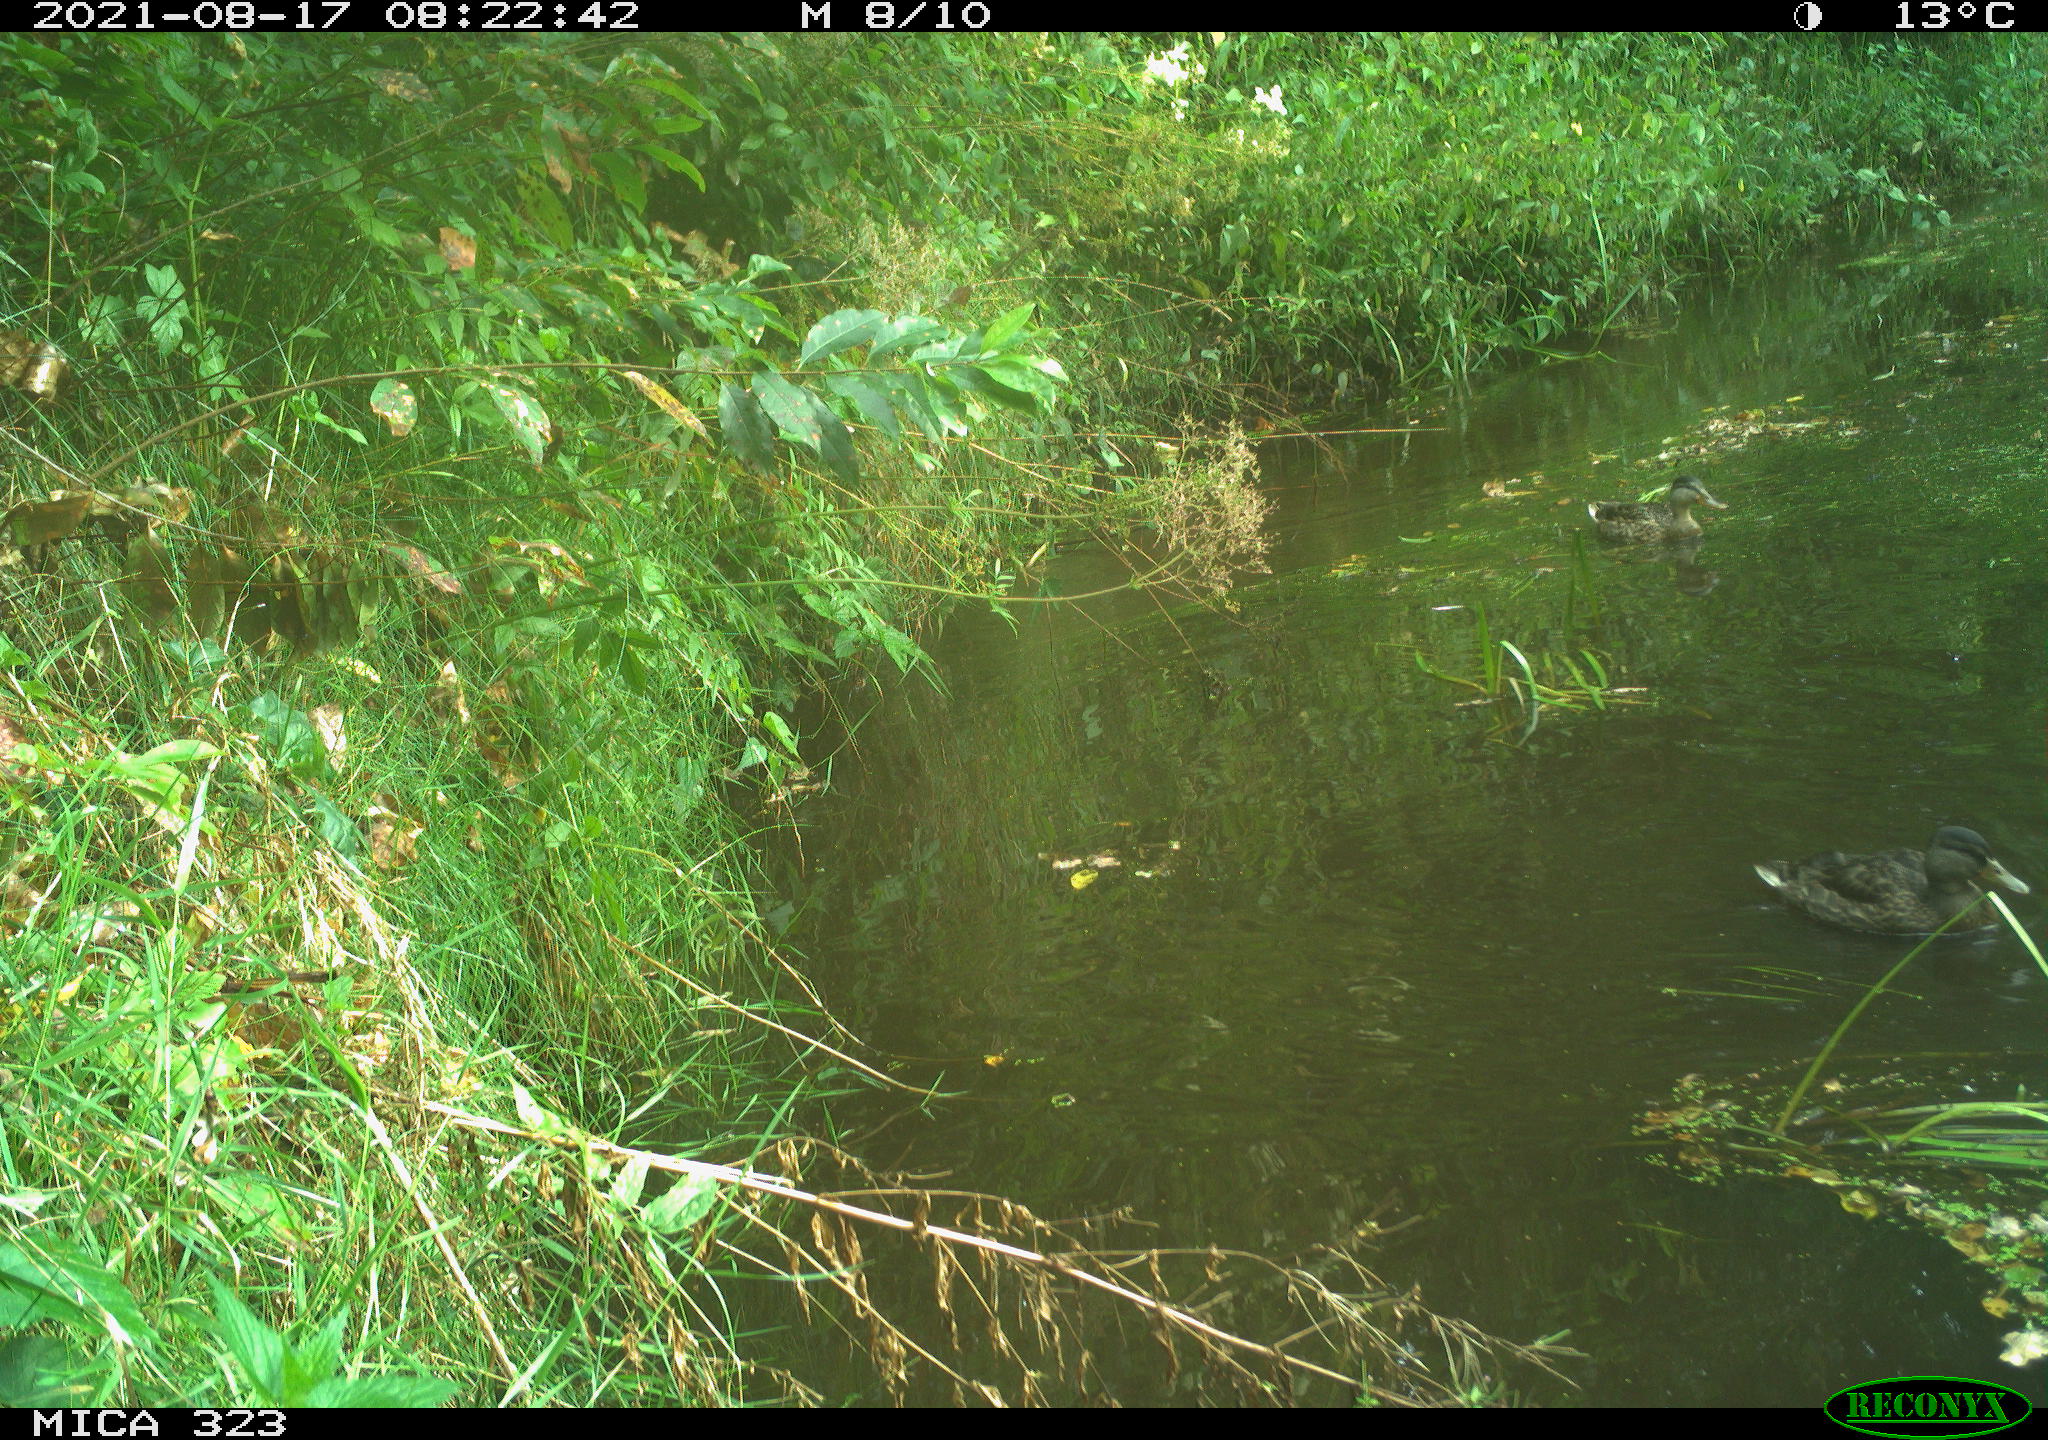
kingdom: Animalia
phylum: Chordata
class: Aves
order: Anseriformes
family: Anatidae
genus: Anas
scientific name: Anas platyrhynchos
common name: Mallard
